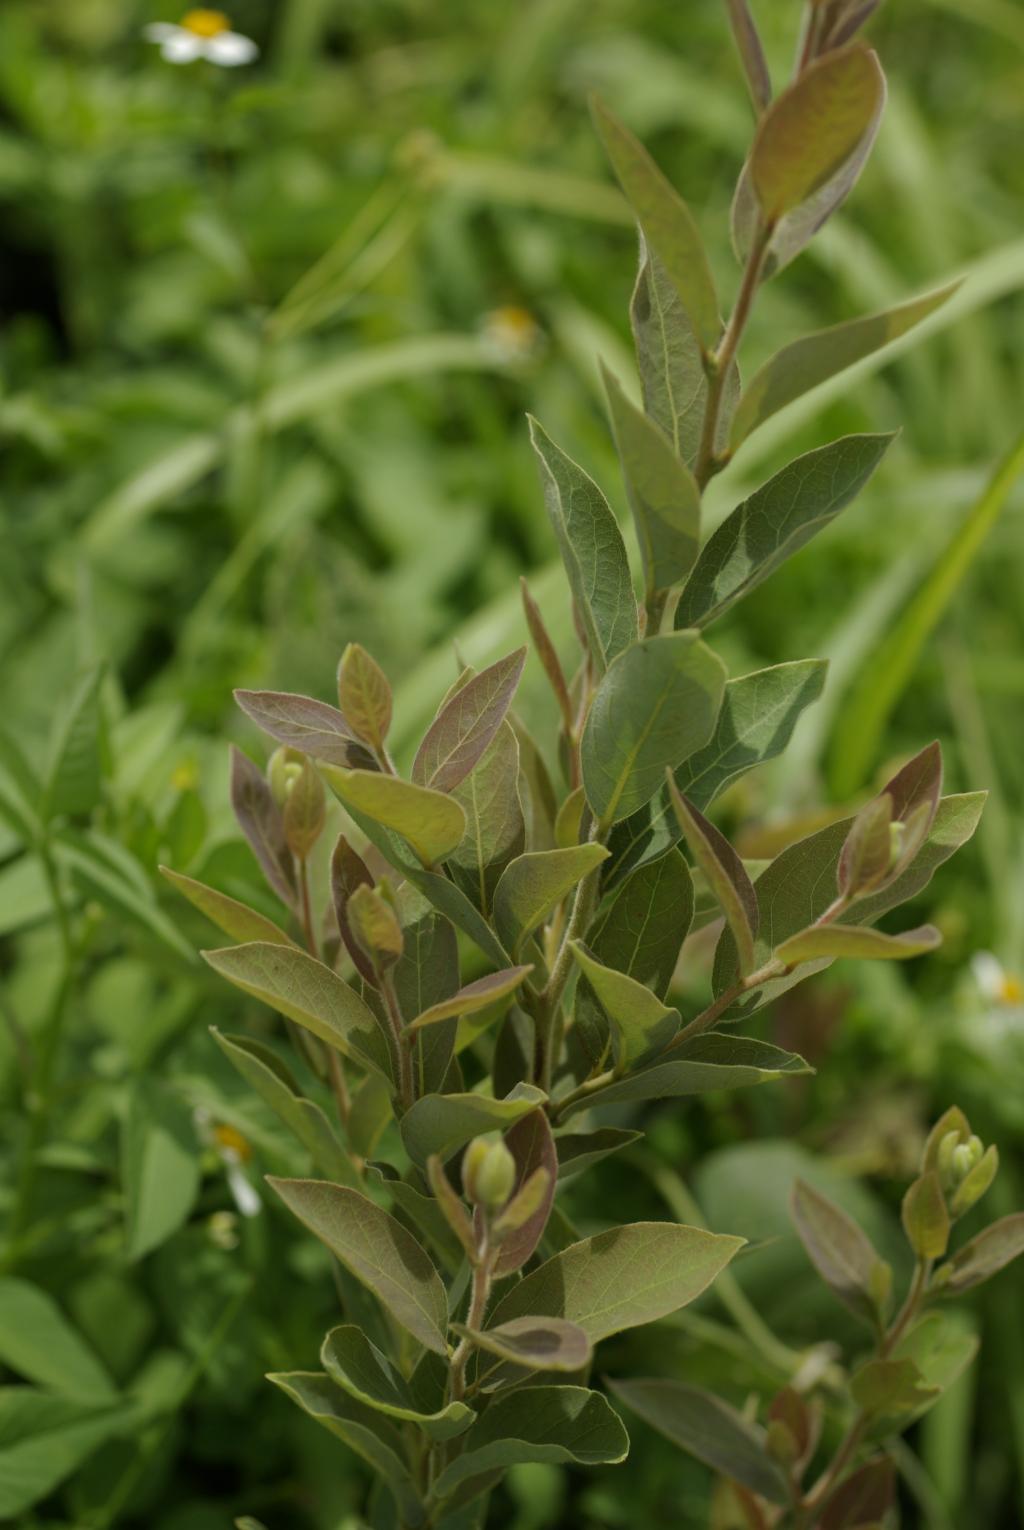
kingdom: Plantae
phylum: Tracheophyta
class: Magnoliopsida
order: Laurales
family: Lauraceae
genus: Lindera
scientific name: Lindera glauca
